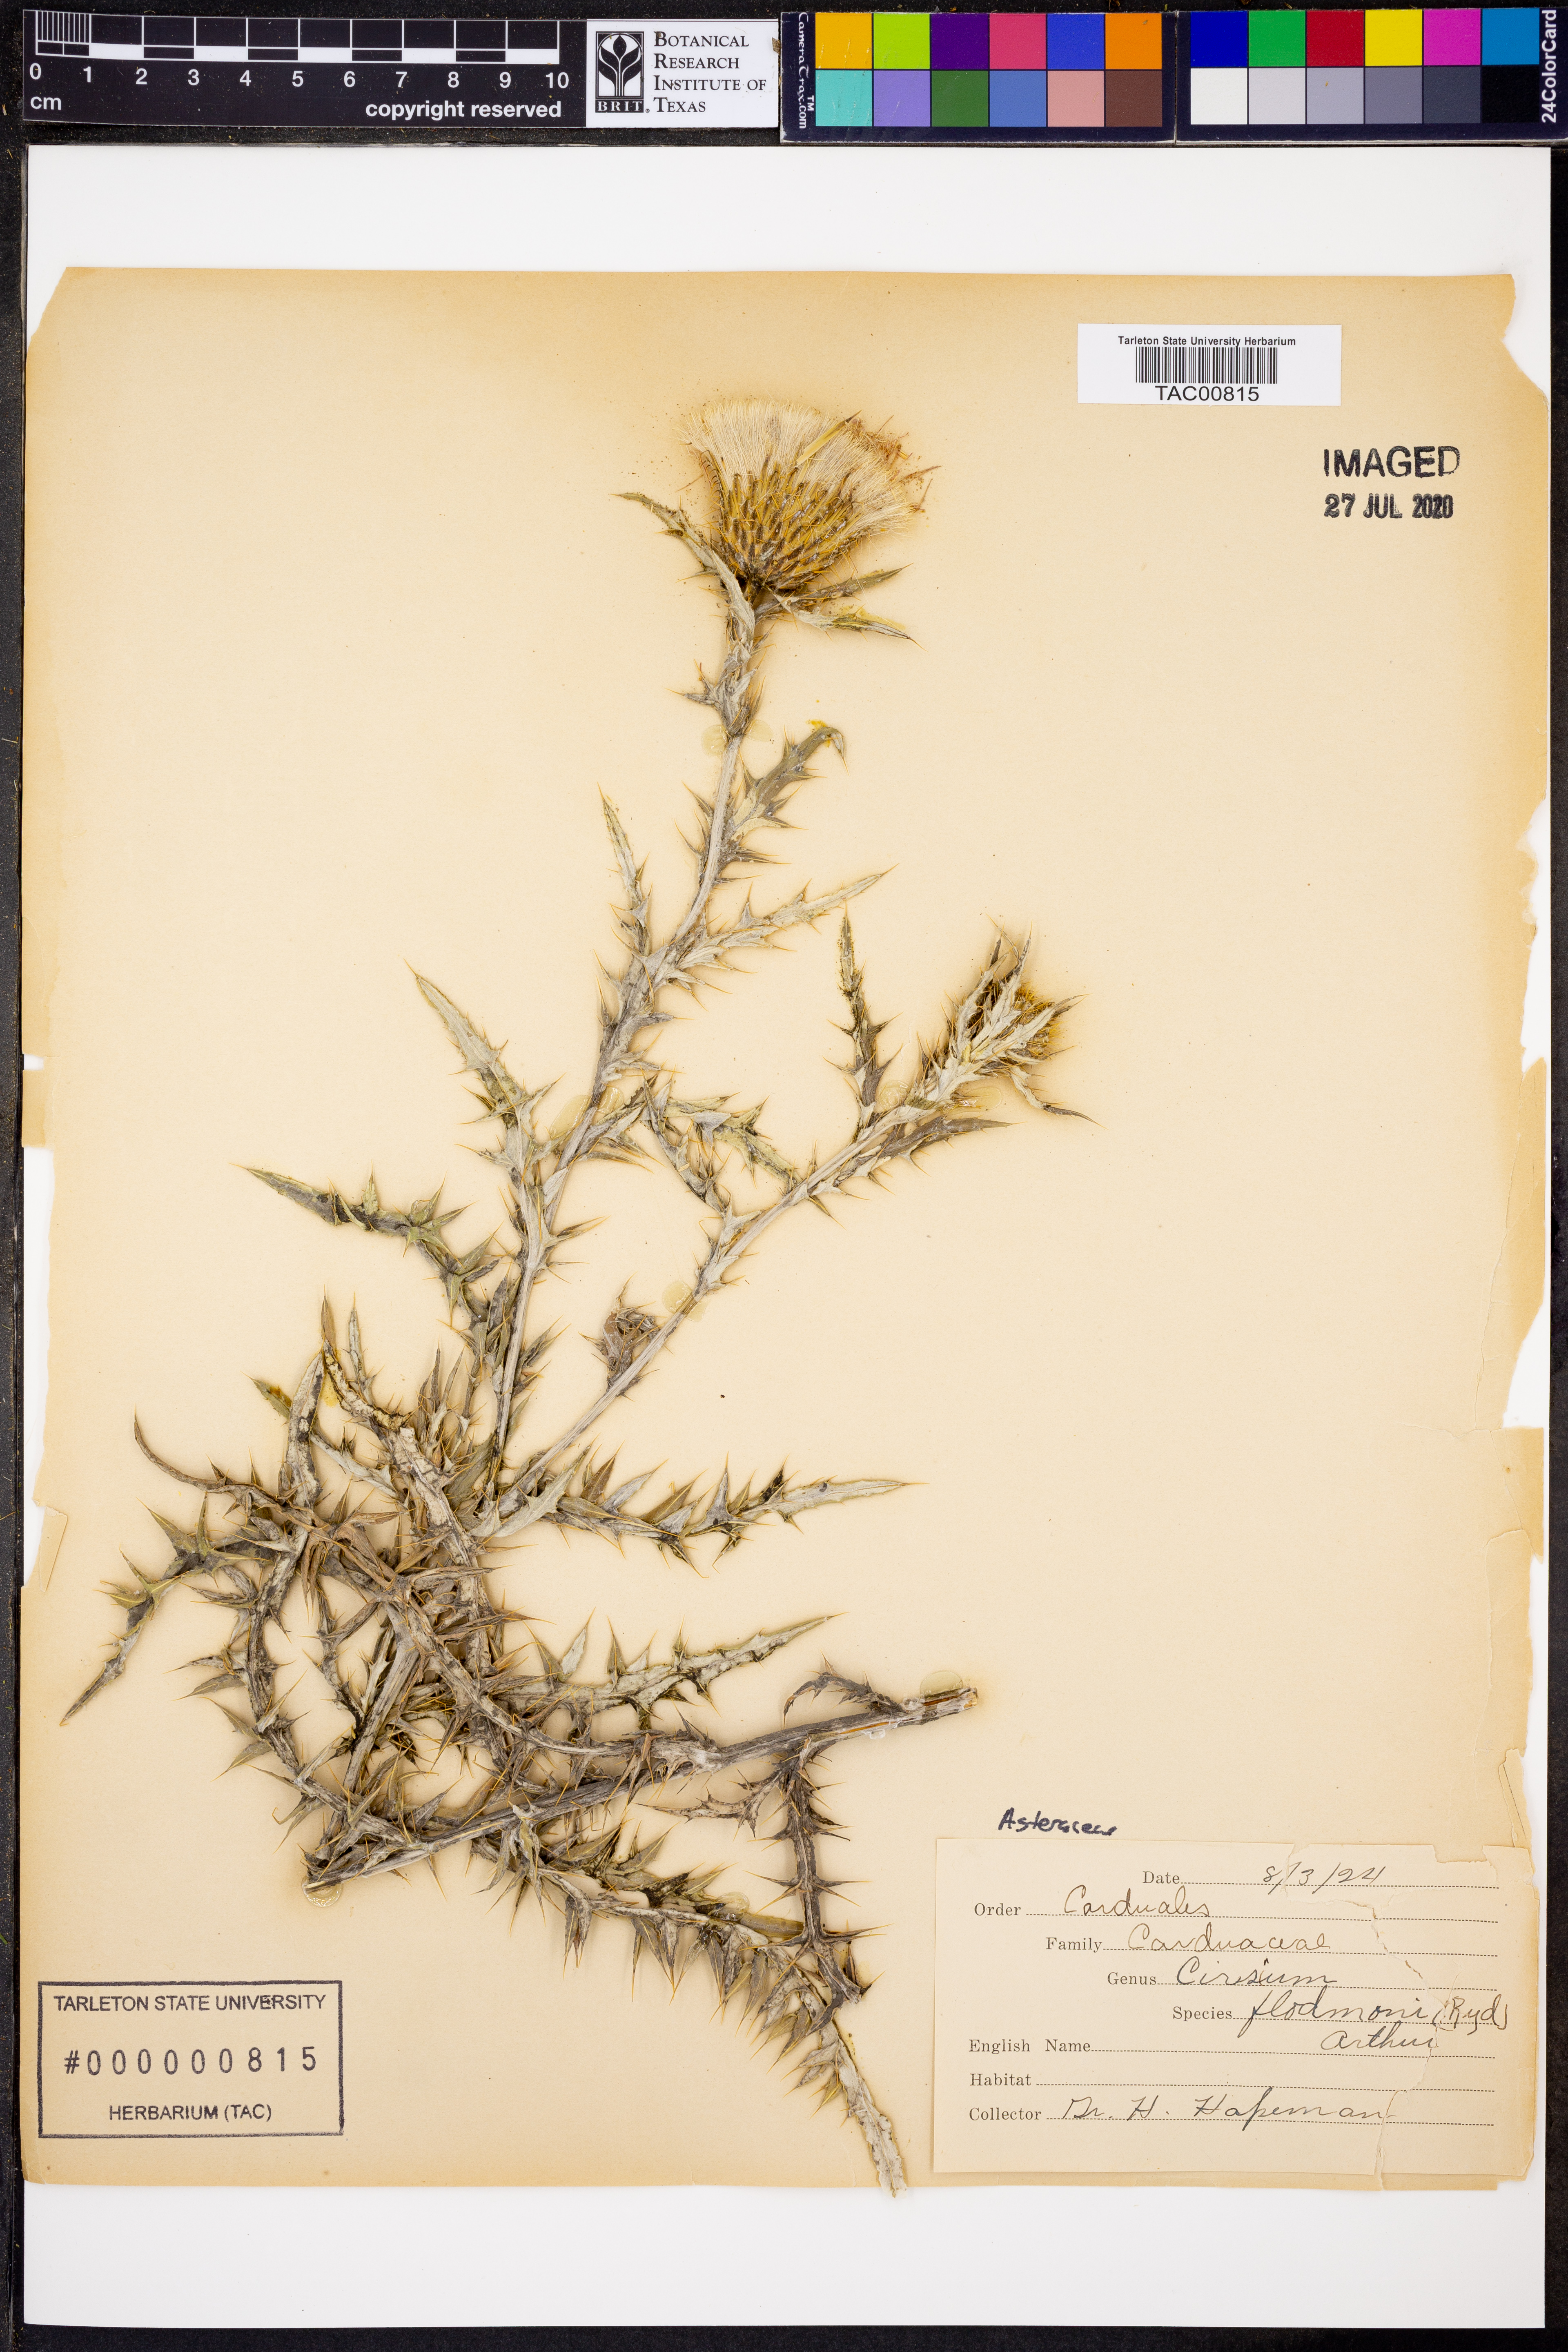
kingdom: Plantae
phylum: Tracheophyta
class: Magnoliopsida
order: Asterales
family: Asteraceae
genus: Cirsium
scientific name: Cirsium flodmanii
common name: Flodman's thistle
